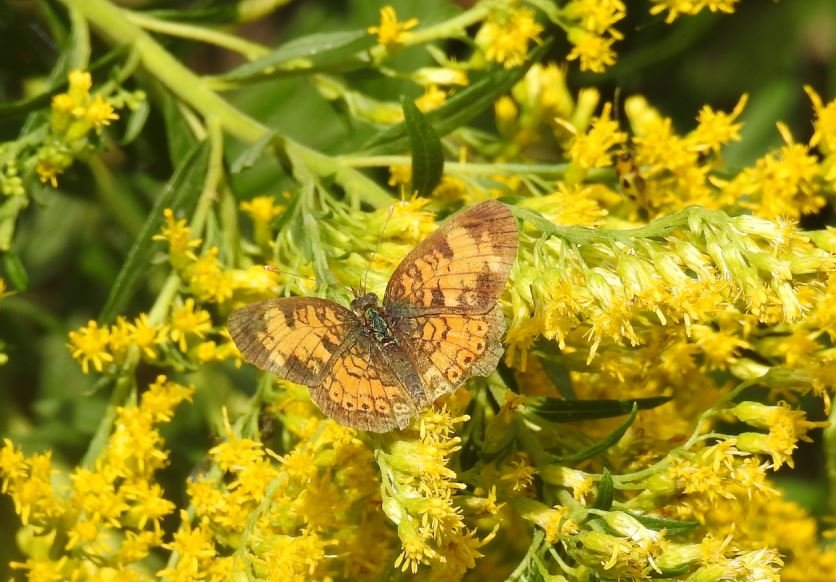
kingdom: Animalia
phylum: Arthropoda
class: Insecta
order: Lepidoptera
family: Nymphalidae
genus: Phyciodes
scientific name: Phyciodes tharos
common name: Northern Crescent
